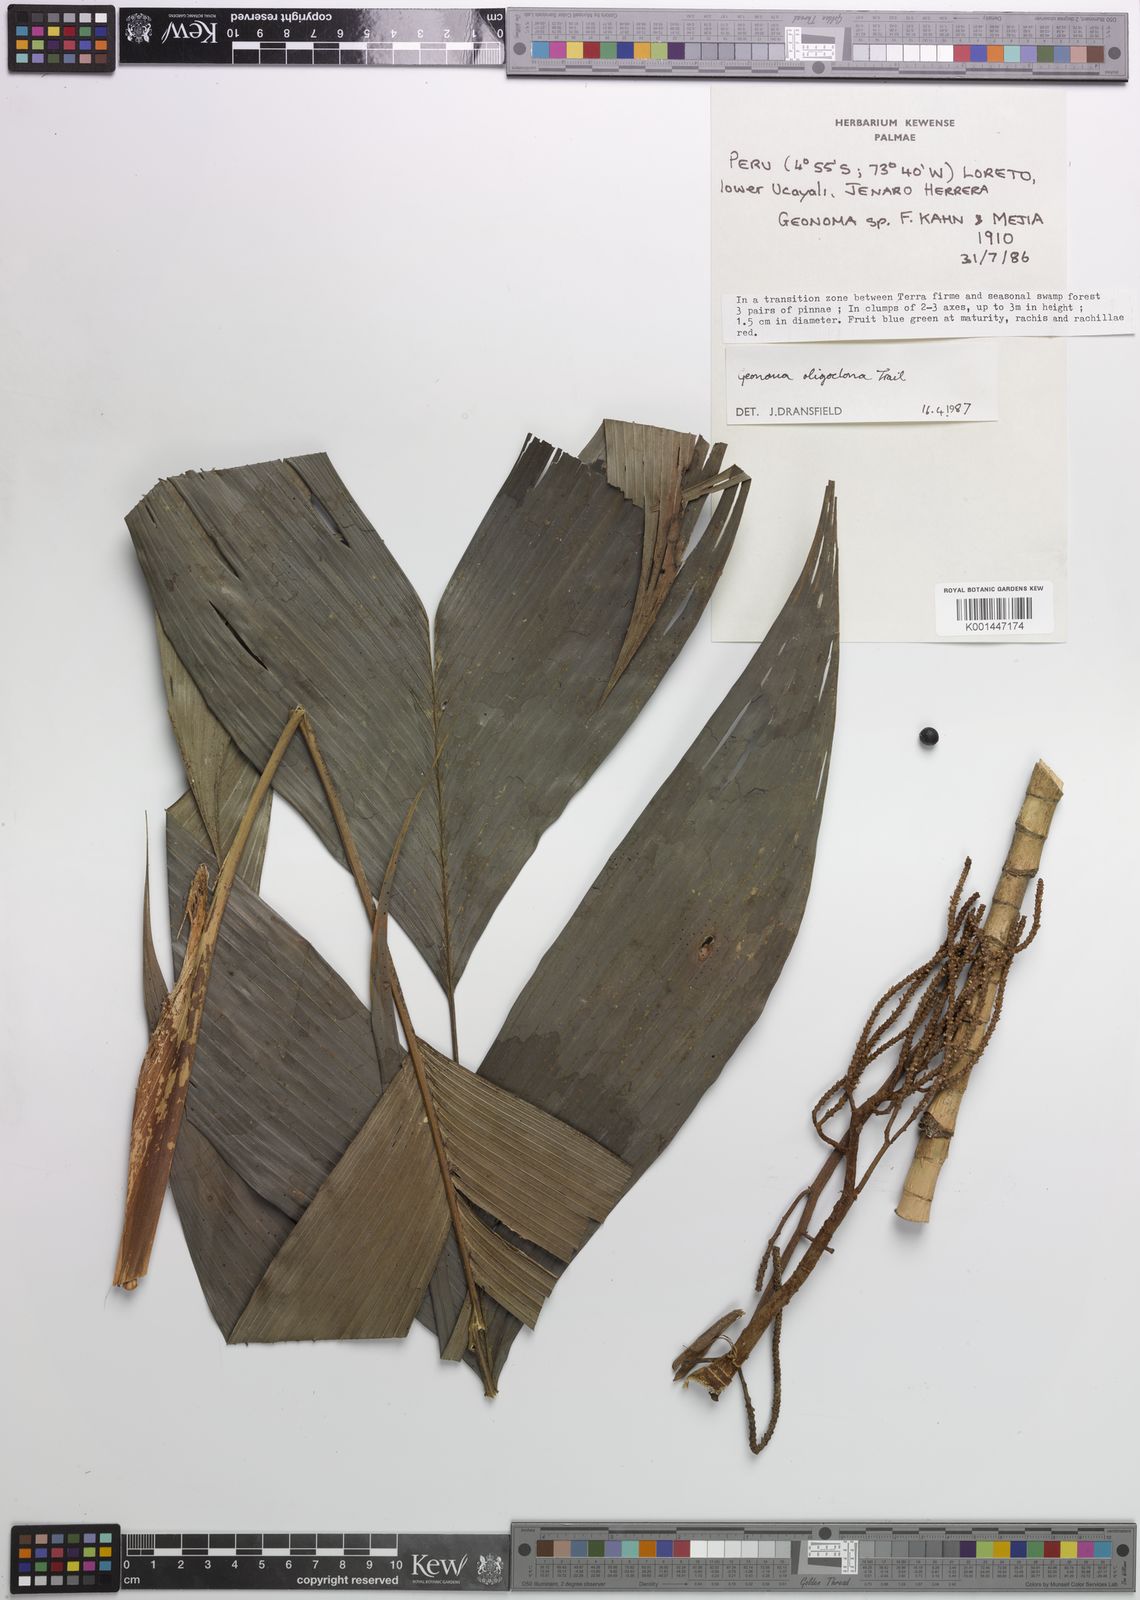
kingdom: Plantae
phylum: Tracheophyta
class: Liliopsida
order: Arecales
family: Arecaceae
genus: Geonoma
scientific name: Geonoma oligoclona
